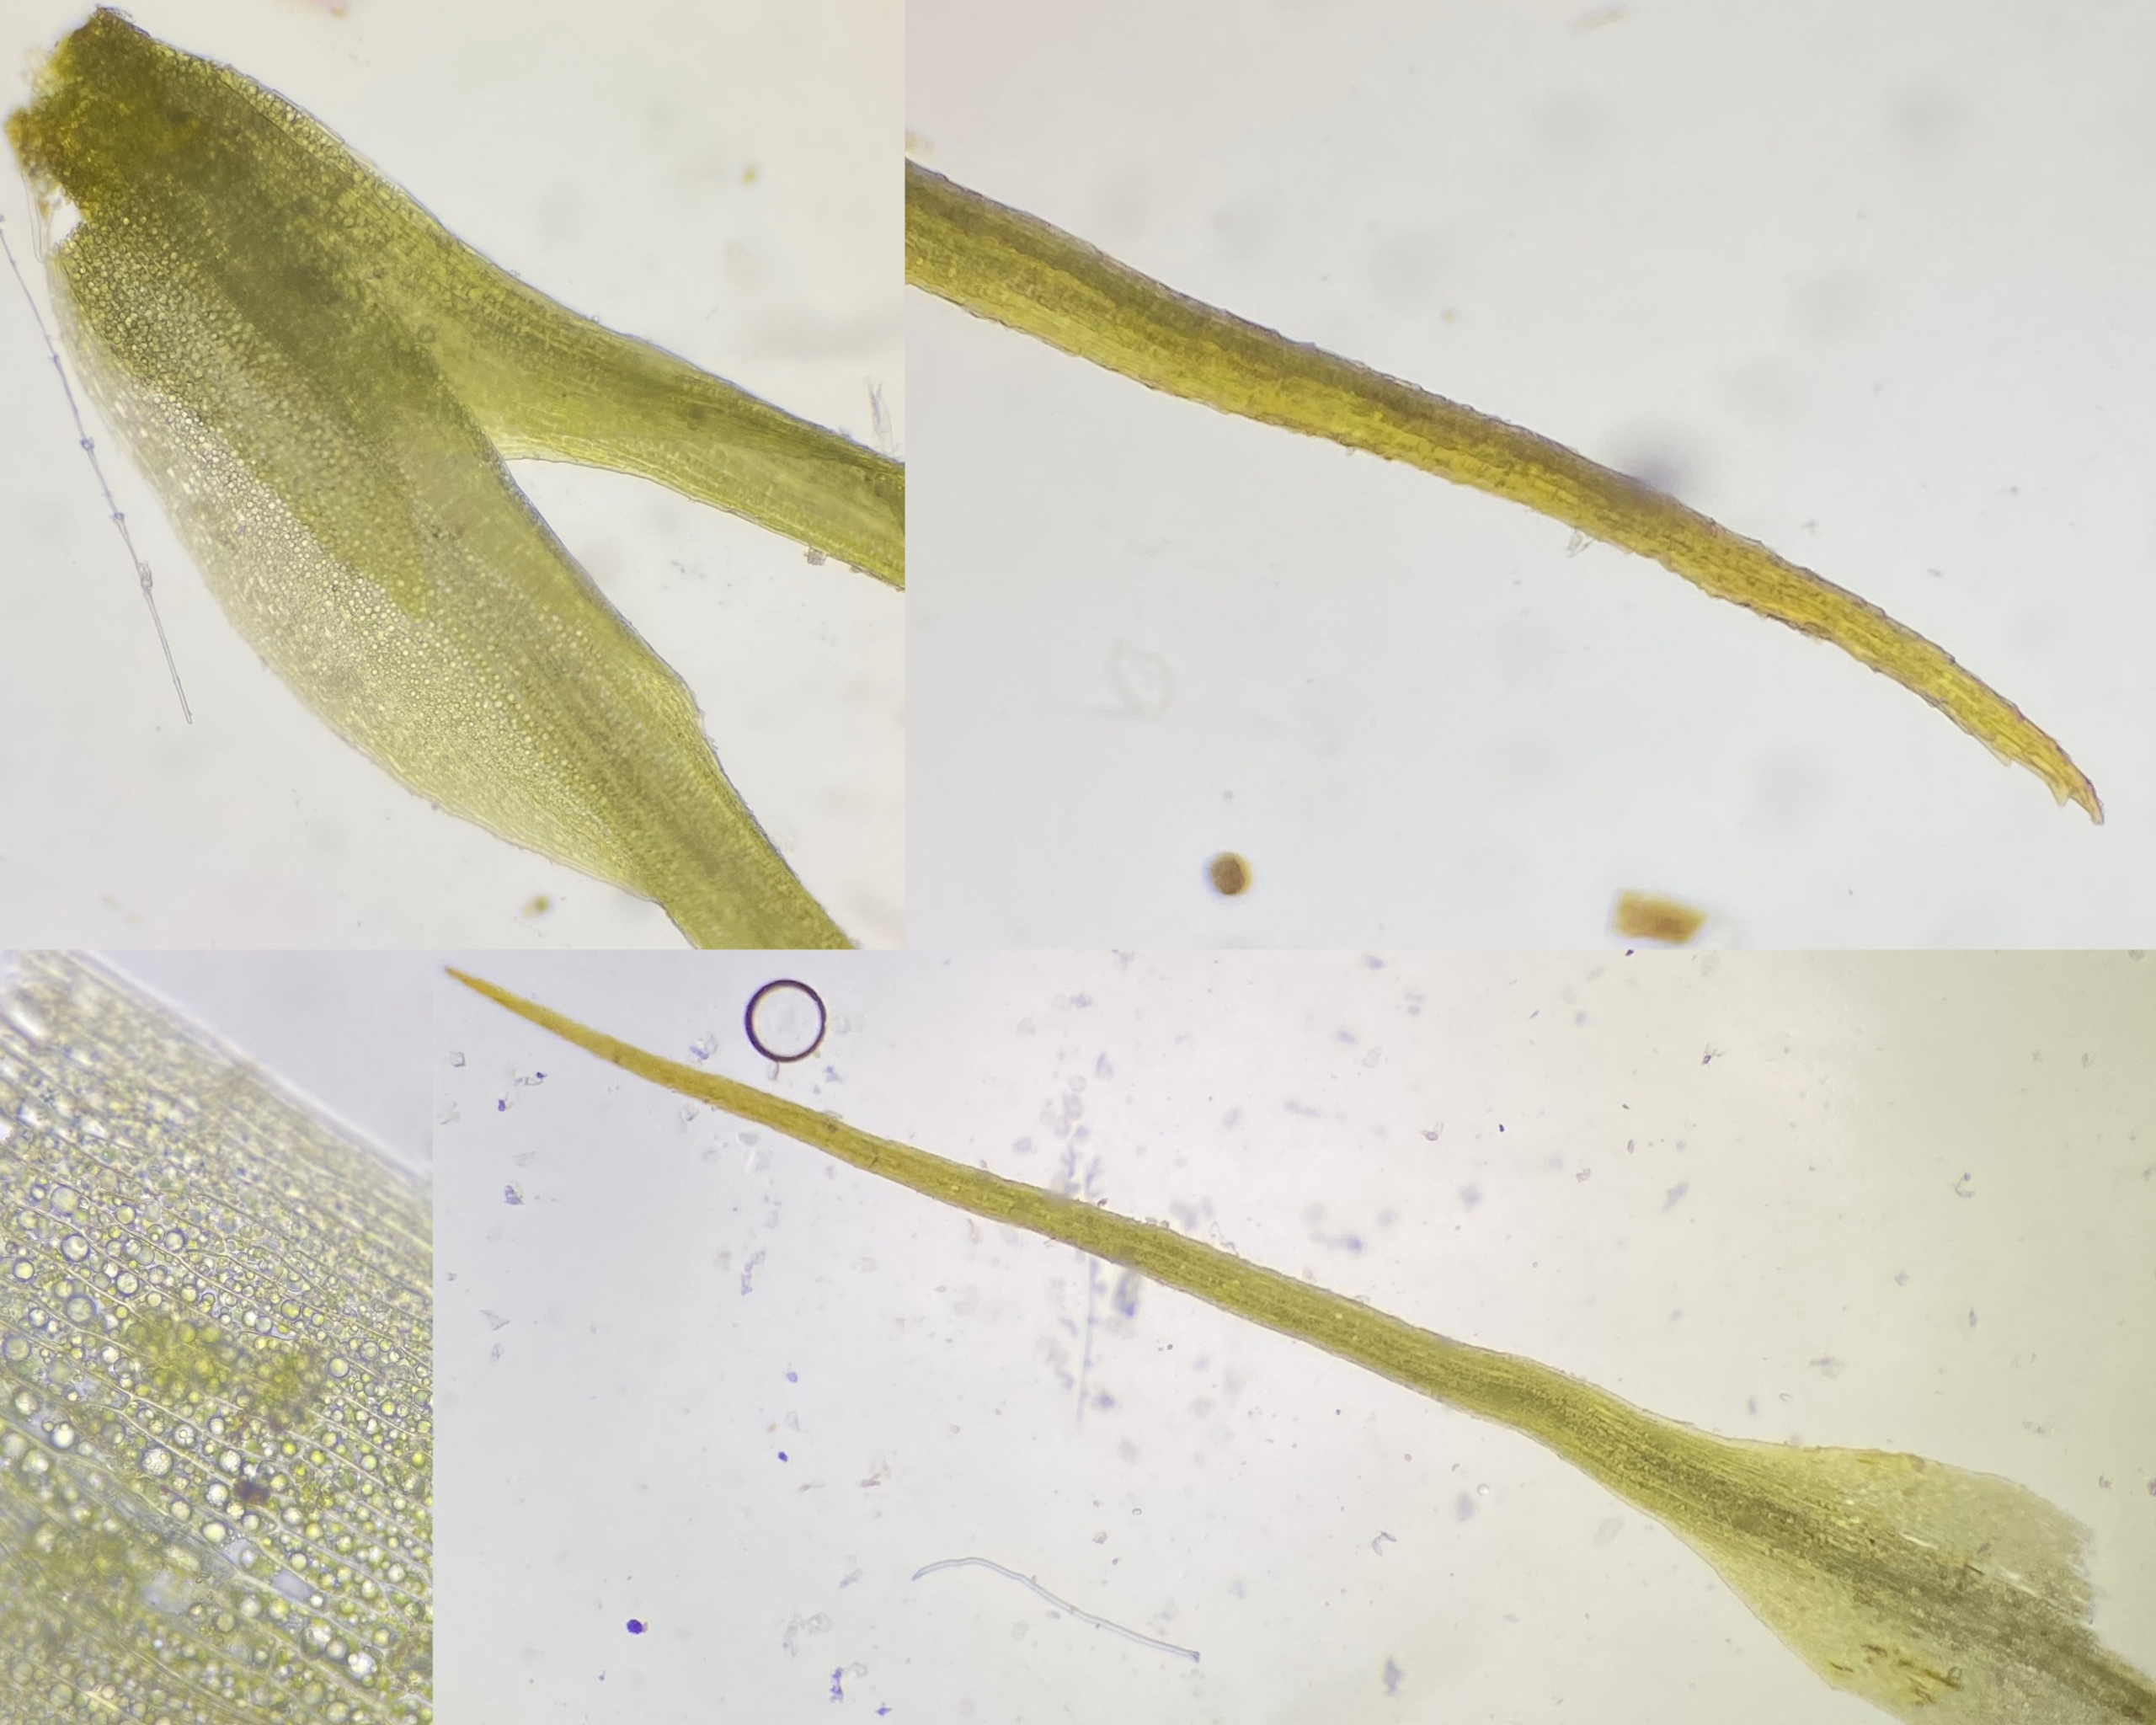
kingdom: Plantae
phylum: Bryophyta
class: Bryopsida
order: Dicranales
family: Ditrichaceae
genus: Pleuridium
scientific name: Pleuridium subulatum
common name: Kortstilket sylbladsmos
